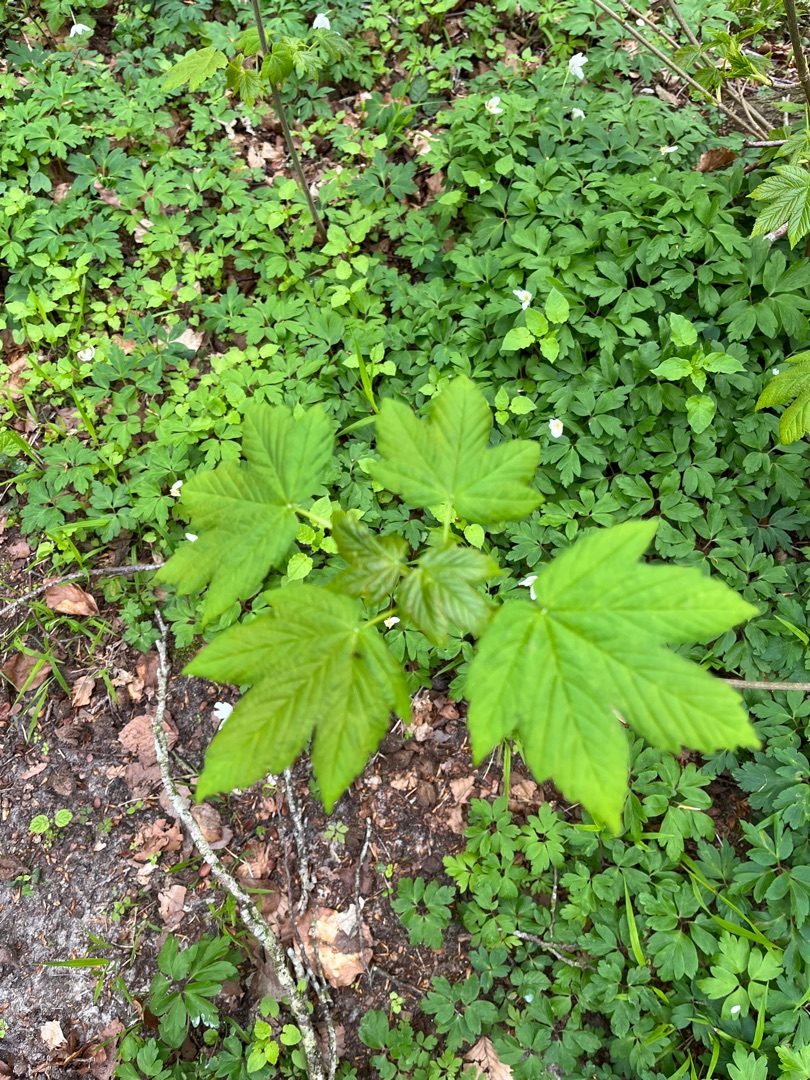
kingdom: Plantae
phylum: Tracheophyta
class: Magnoliopsida
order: Sapindales
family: Sapindaceae
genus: Acer
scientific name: Acer pseudoplatanus
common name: Ahorn
